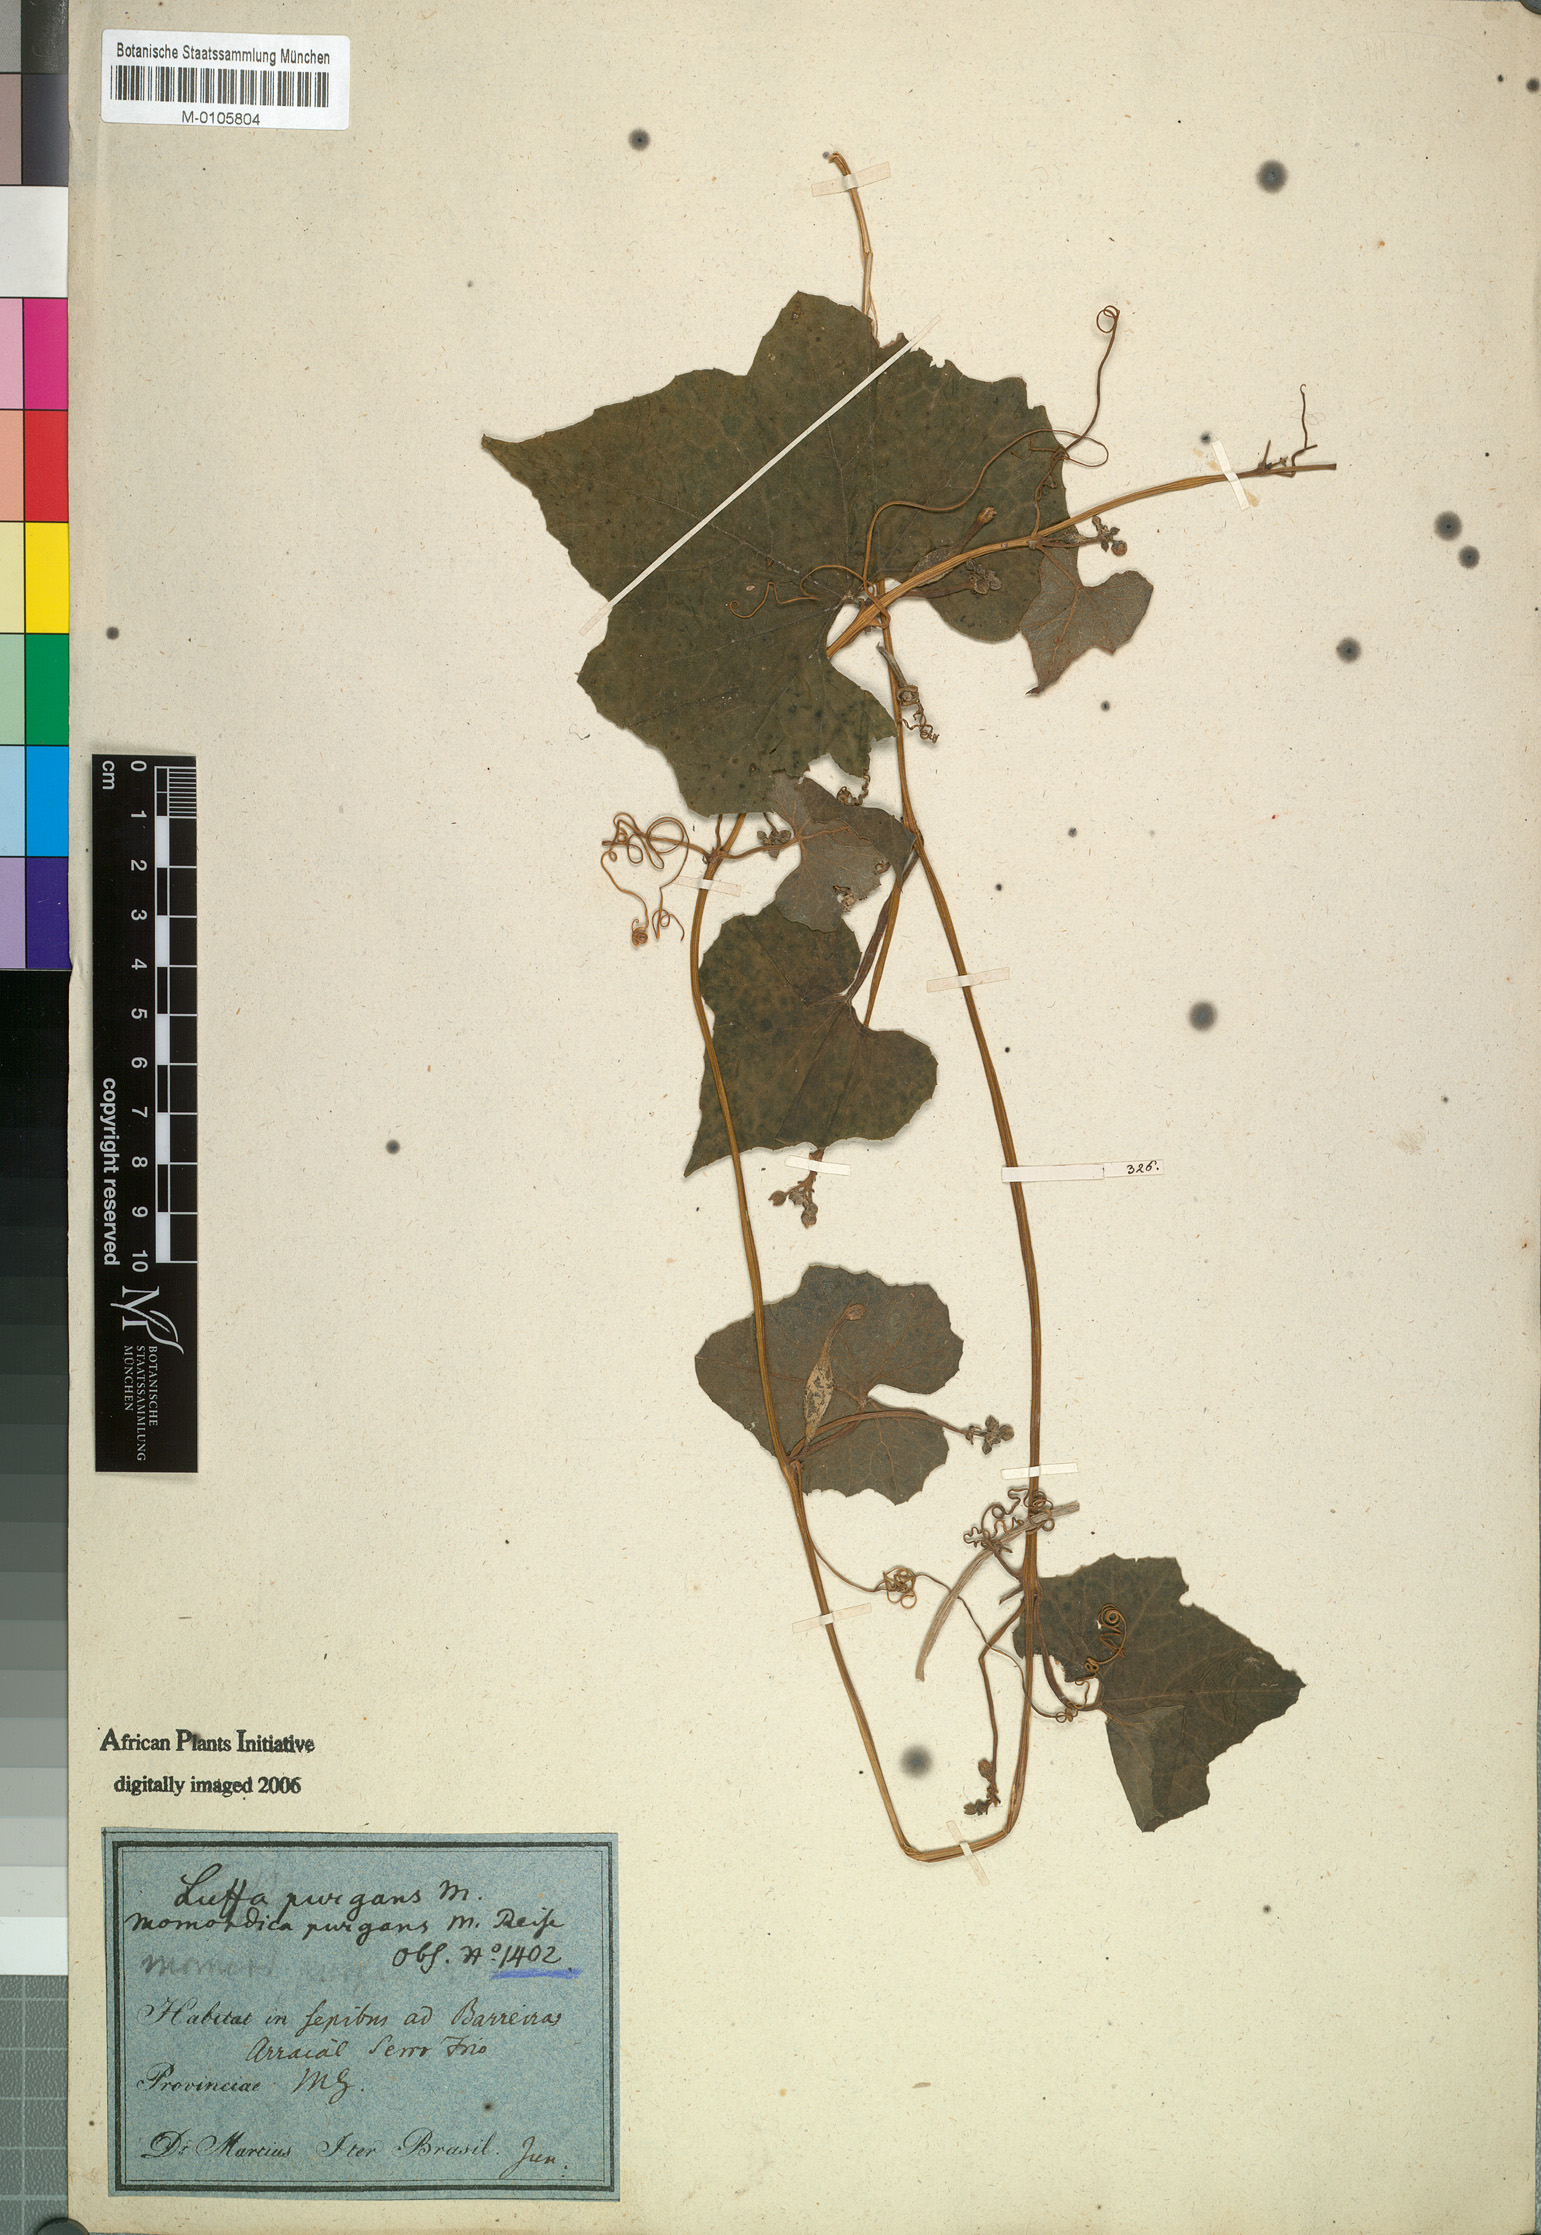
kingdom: Plantae
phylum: Tracheophyta
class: Magnoliopsida
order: Cucurbitales
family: Cucurbitaceae
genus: Luffa
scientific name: Luffa operculata
